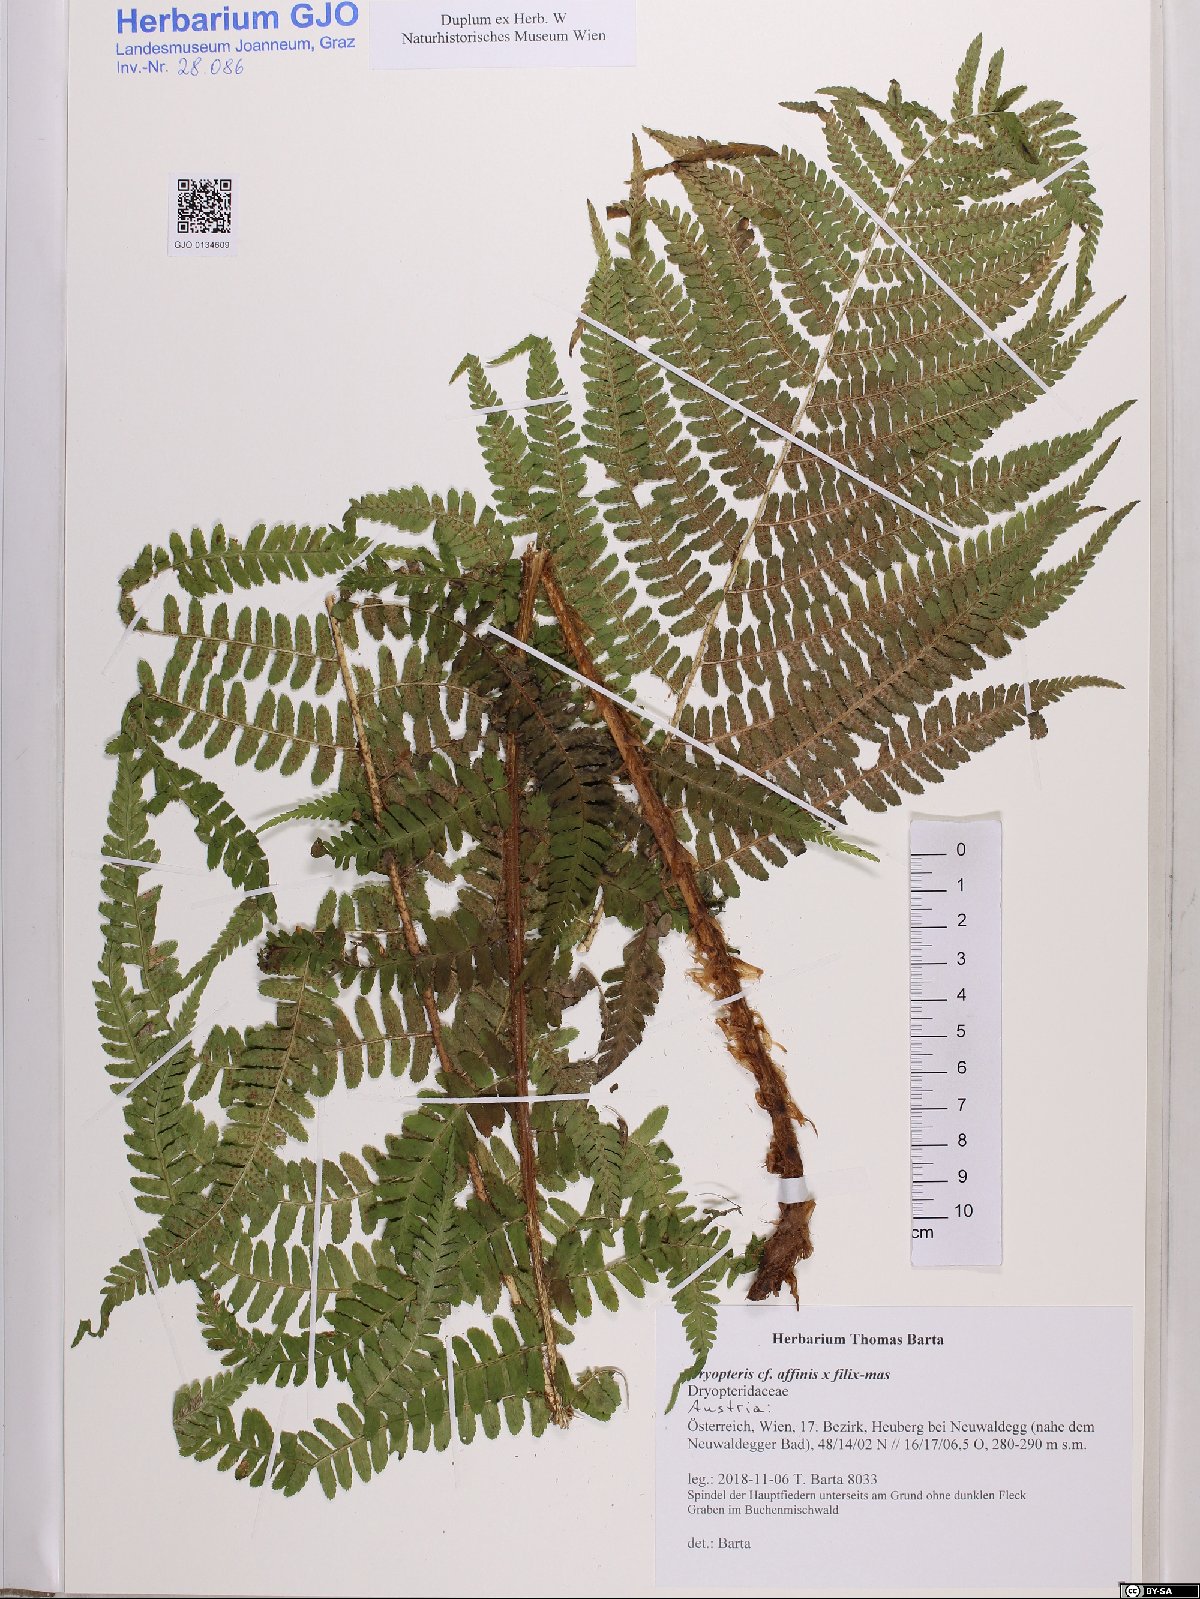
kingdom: Plantae
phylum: Tracheophyta
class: Polypodiopsida
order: Polypodiales
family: Dryopteridaceae
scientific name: Dryopteridaceae
